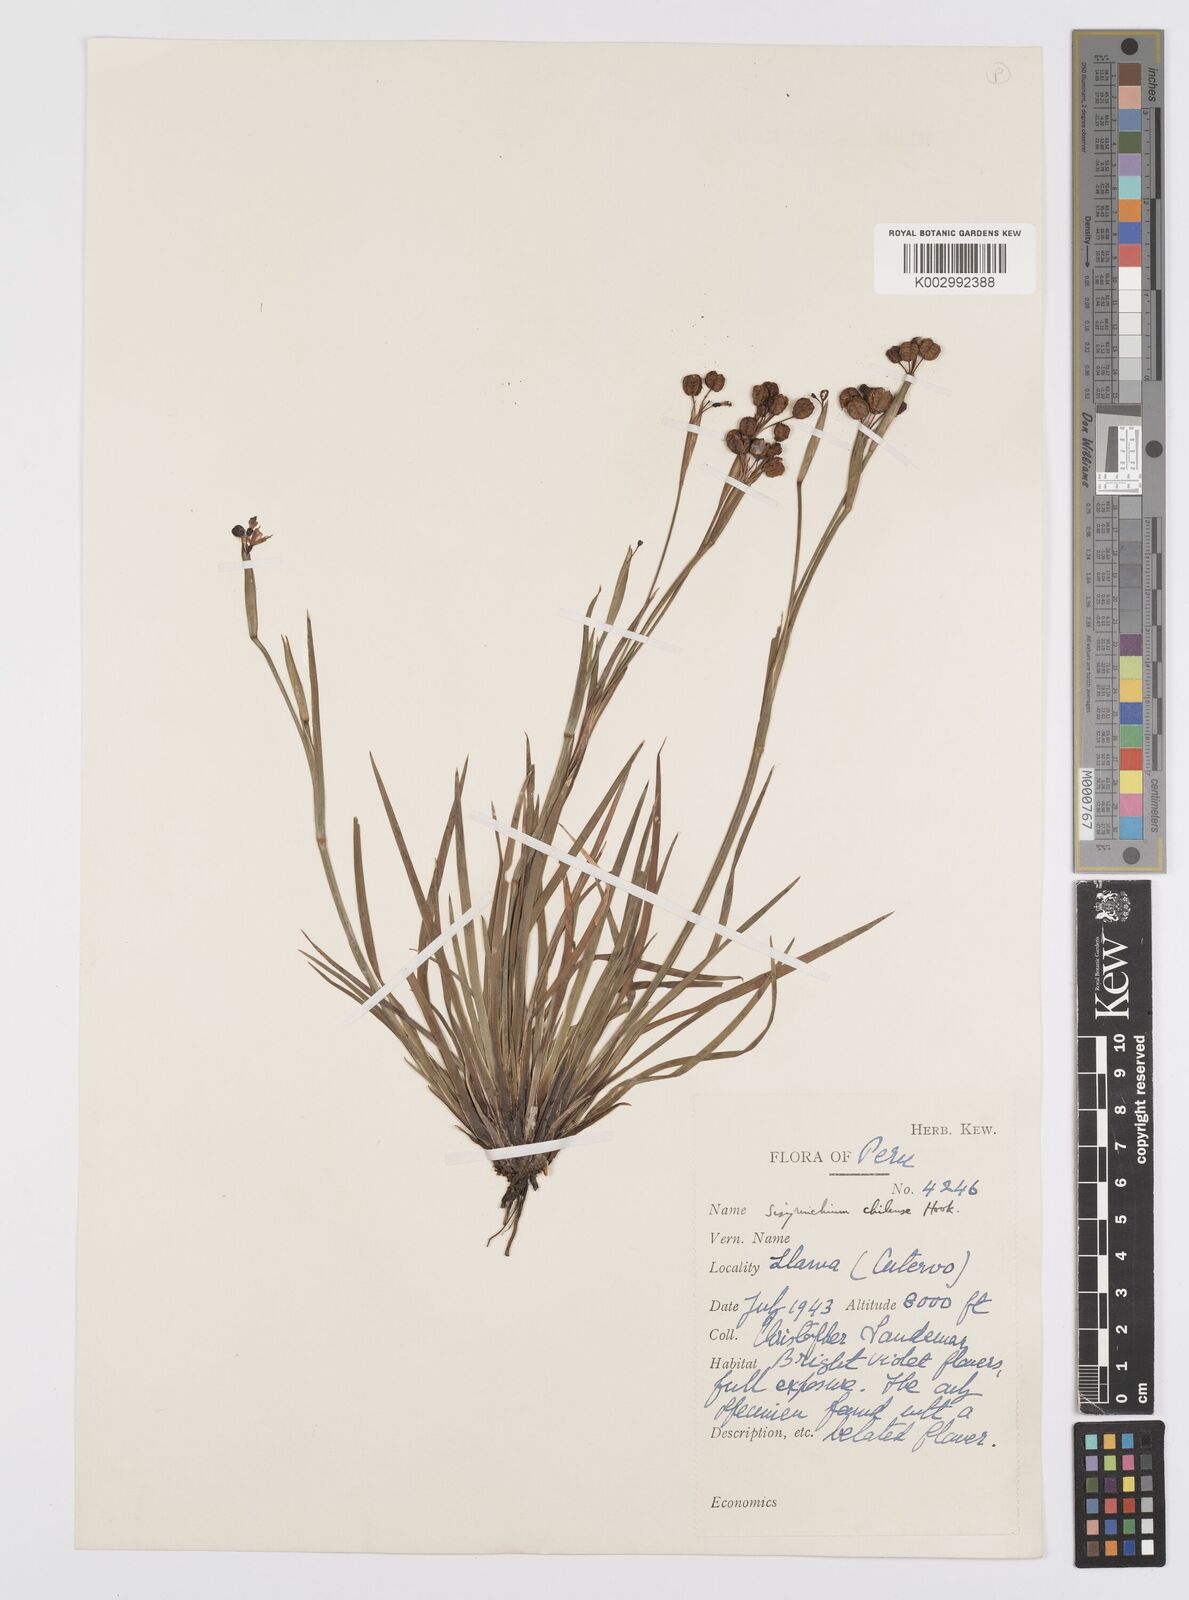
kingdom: Plantae
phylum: Tracheophyta
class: Liliopsida
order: Asparagales
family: Iridaceae
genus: Sisyrinchium
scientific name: Sisyrinchium chilense
